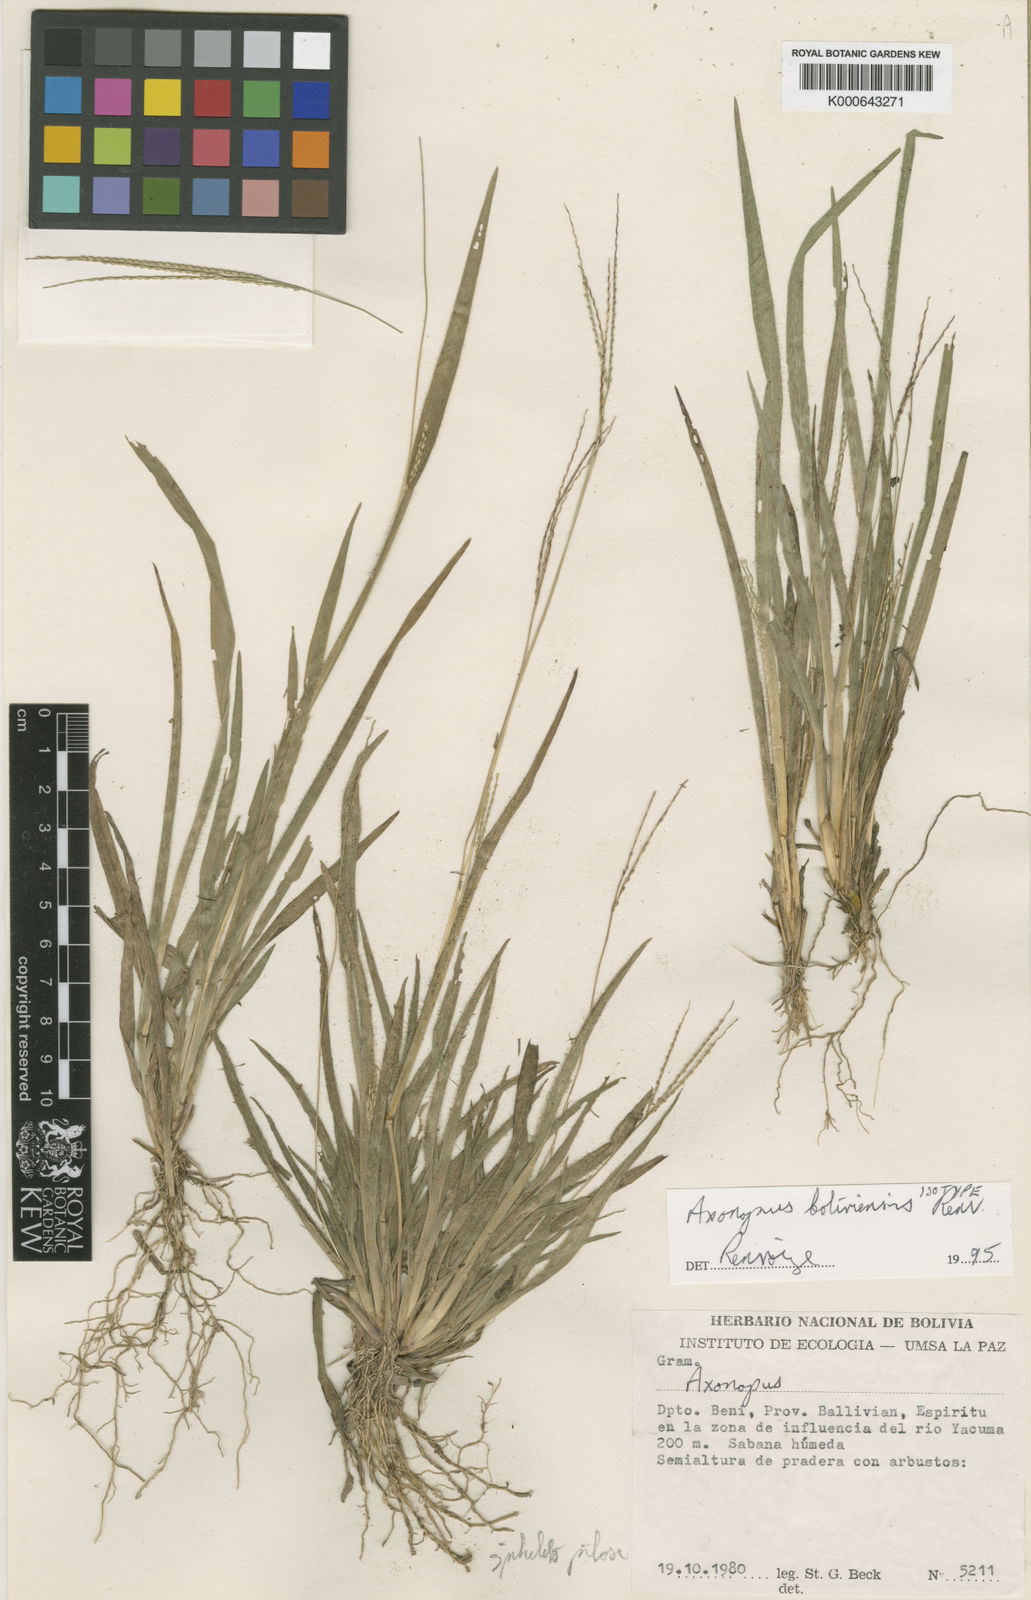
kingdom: Plantae
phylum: Tracheophyta
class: Liliopsida
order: Poales
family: Poaceae
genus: Axonopus
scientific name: Axonopus boliviensis
